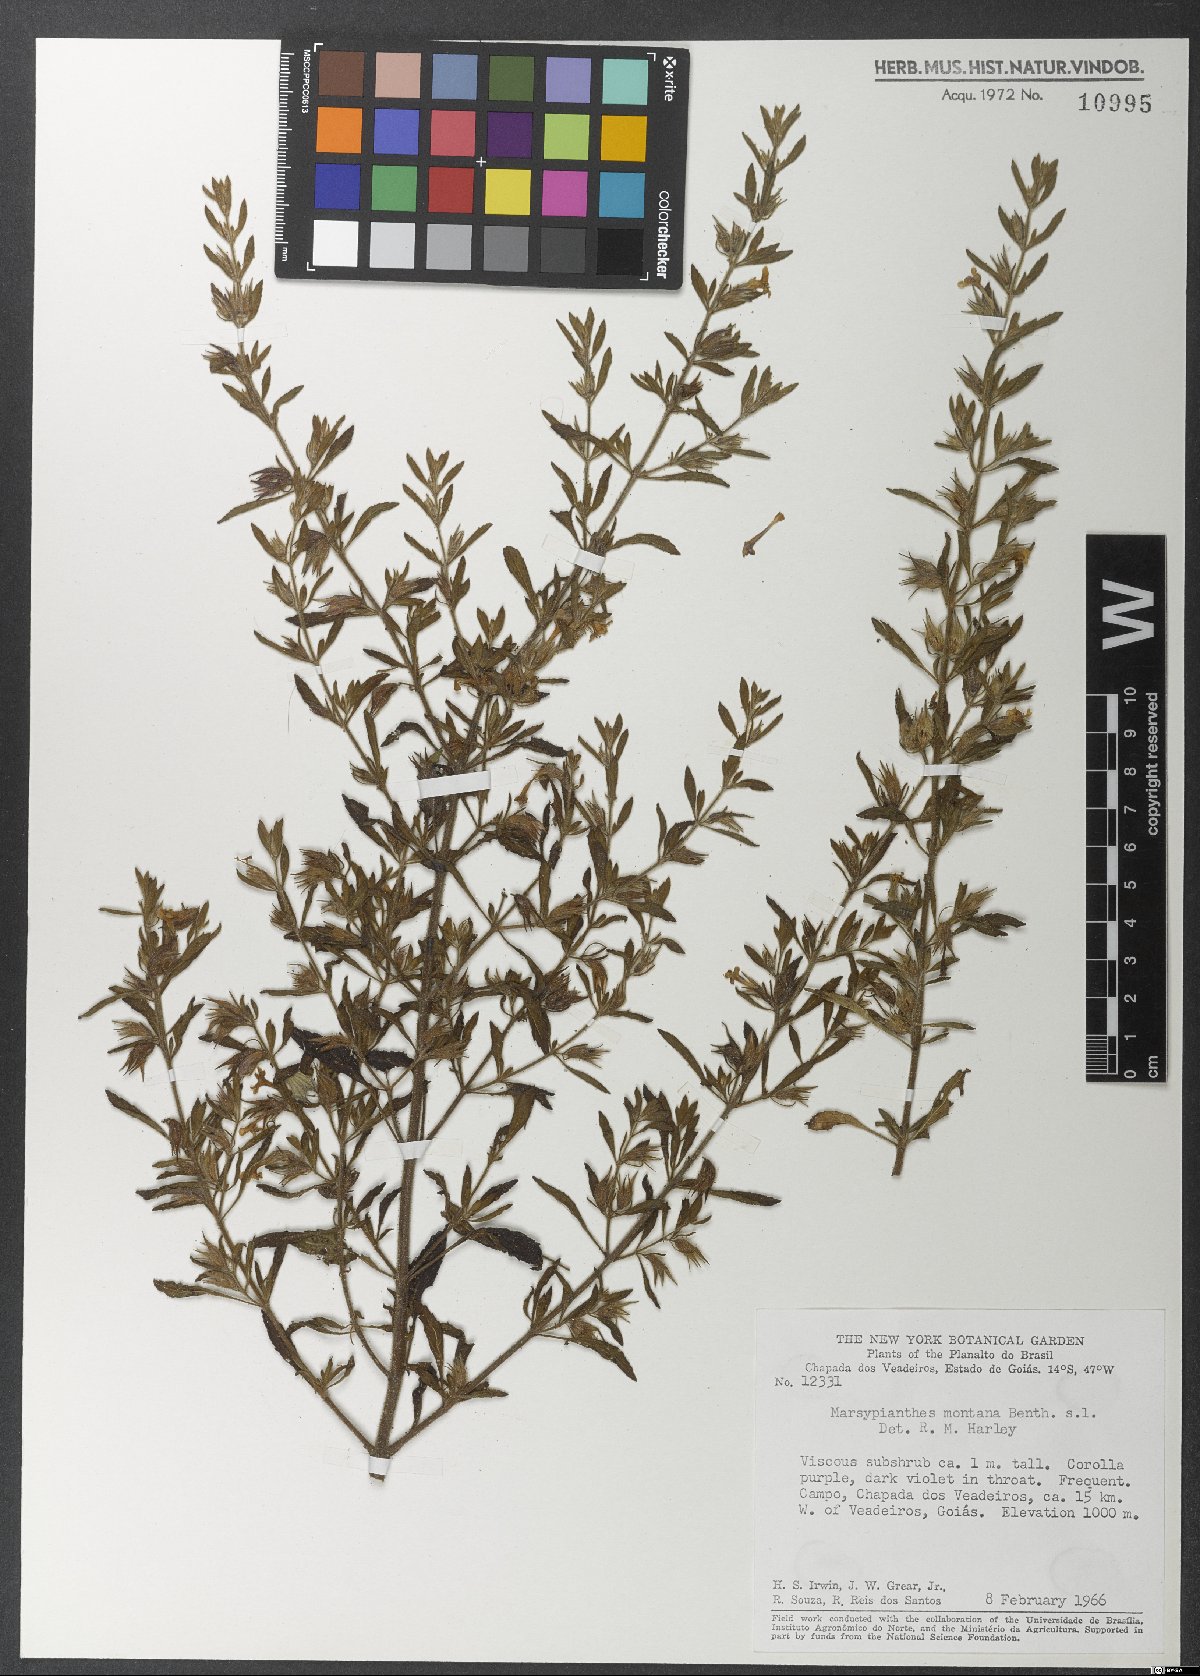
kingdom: Plantae
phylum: Tracheophyta
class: Magnoliopsida
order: Lamiales
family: Lamiaceae
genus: Marsypianthes
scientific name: Marsypianthes montana
